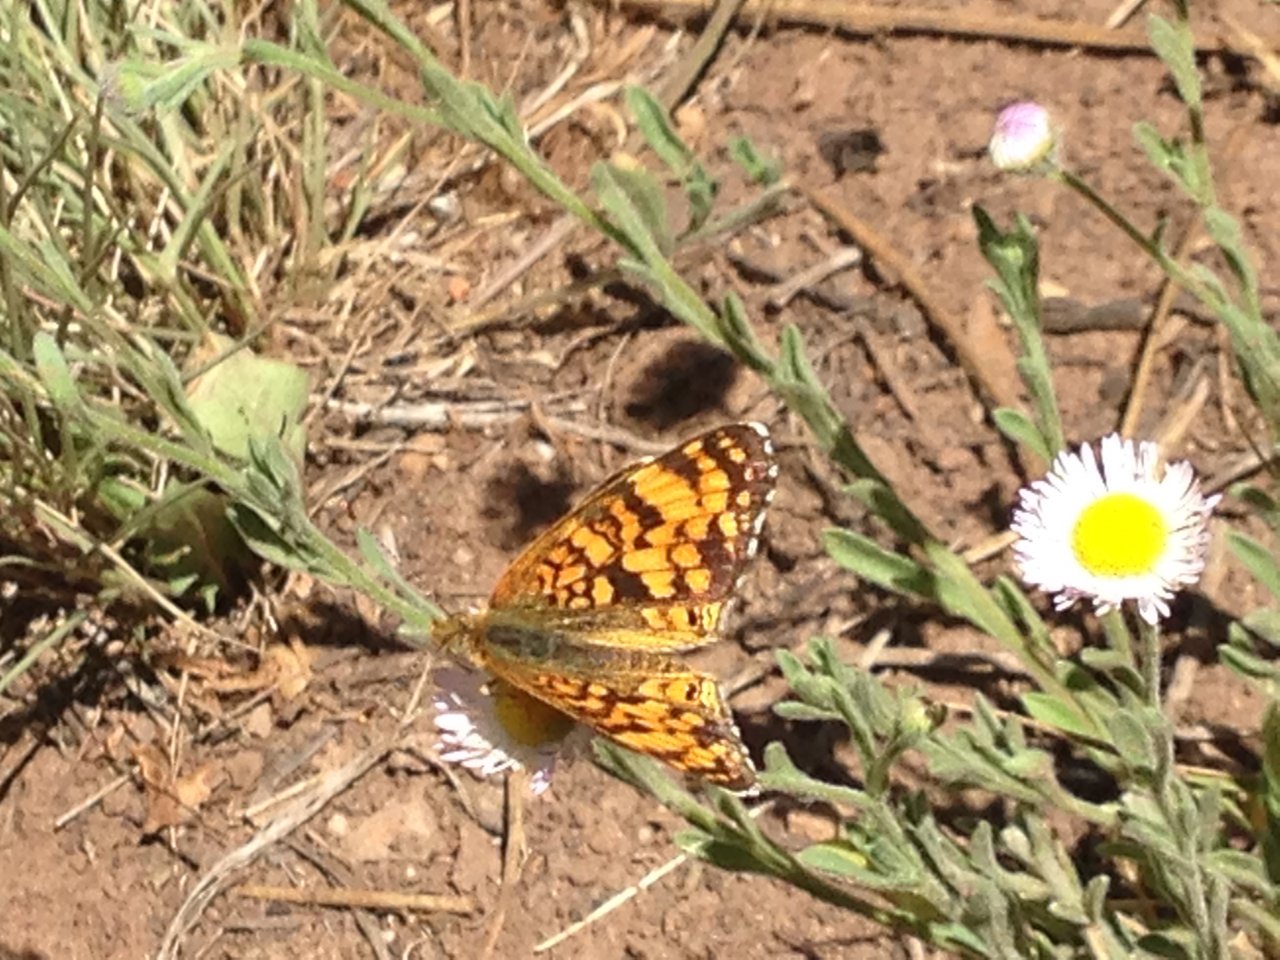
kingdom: Animalia
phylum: Arthropoda
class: Insecta
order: Lepidoptera
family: Nymphalidae
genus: Eresia
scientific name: Eresia aveyrona
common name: Mylitta Crescent
